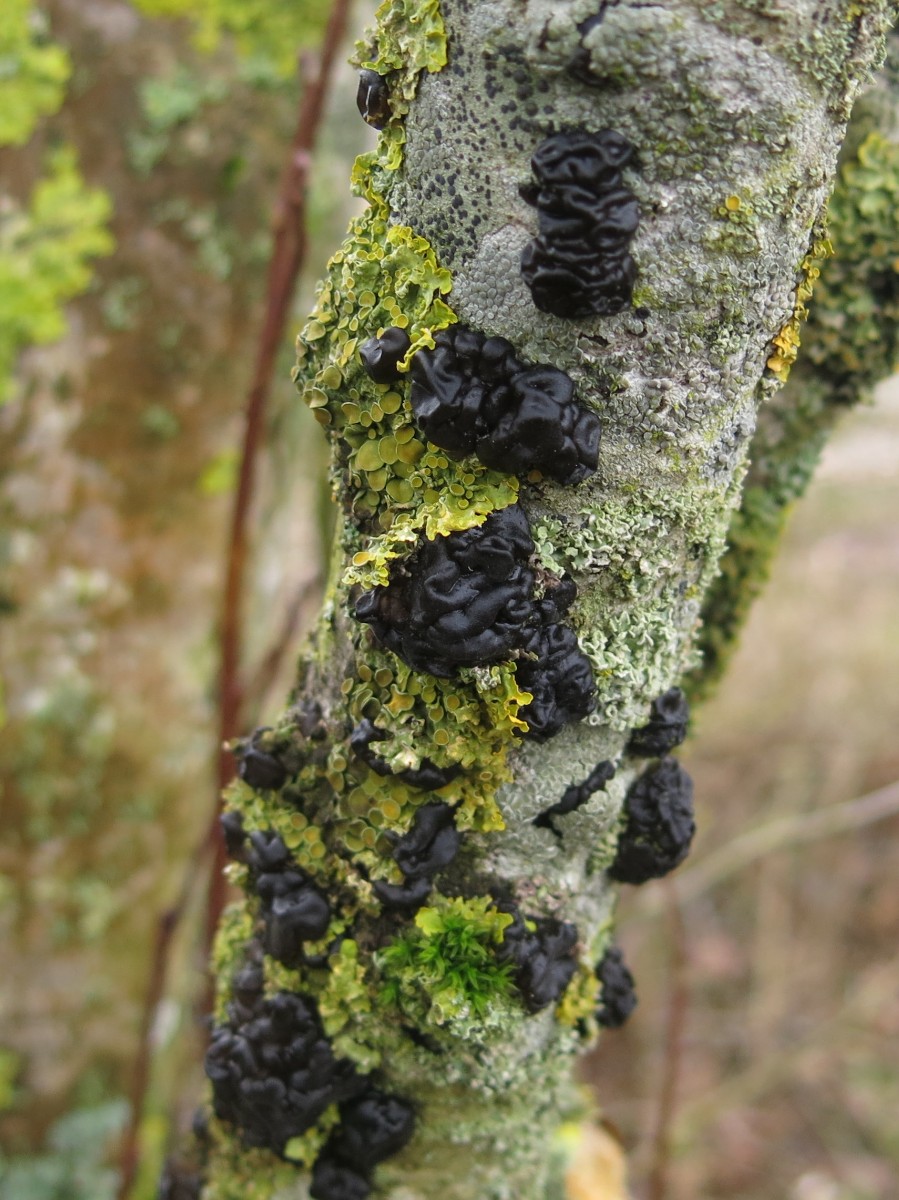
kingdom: Fungi
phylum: Basidiomycota
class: Agaricomycetes
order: Auriculariales
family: Auriculariaceae
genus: Exidia
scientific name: Exidia nigricans
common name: almindelig bævretop
